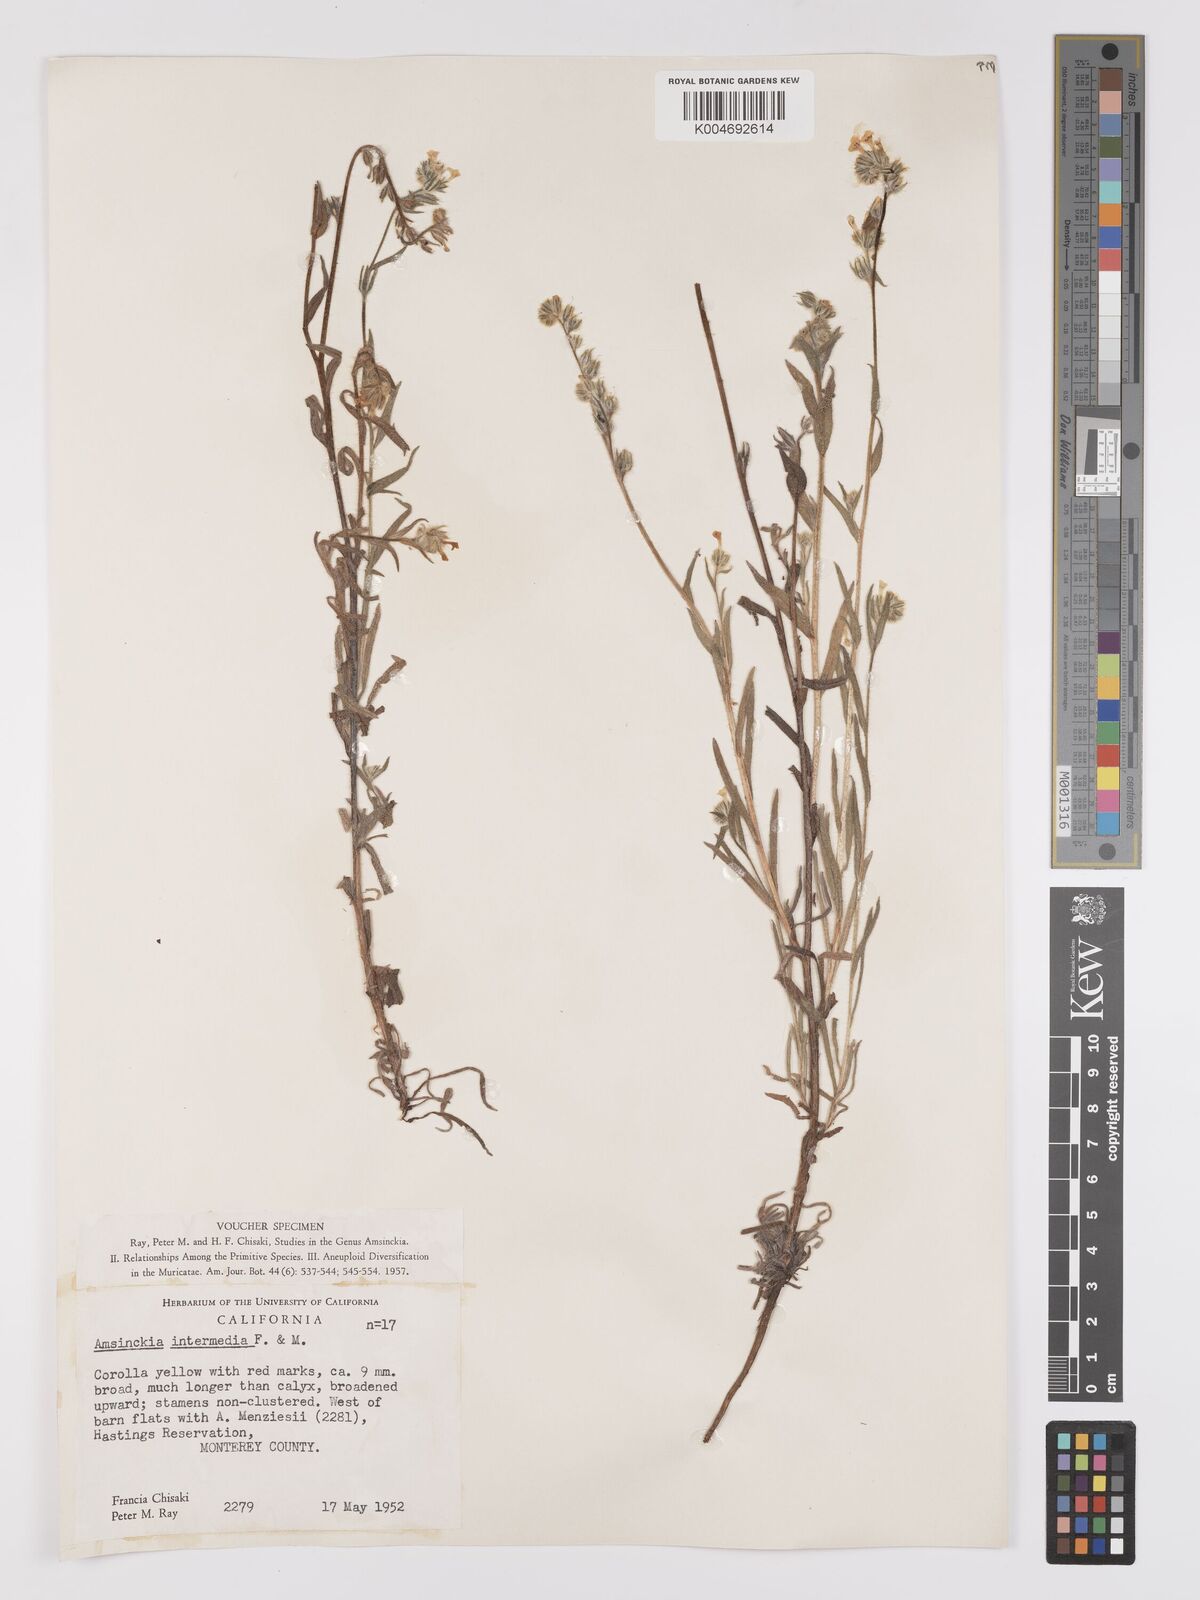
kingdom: Plantae
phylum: Tracheophyta
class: Magnoliopsida
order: Boraginales
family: Boraginaceae
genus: Amsinckia
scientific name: Amsinckia menziesii
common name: Menzies' fiddleneck
